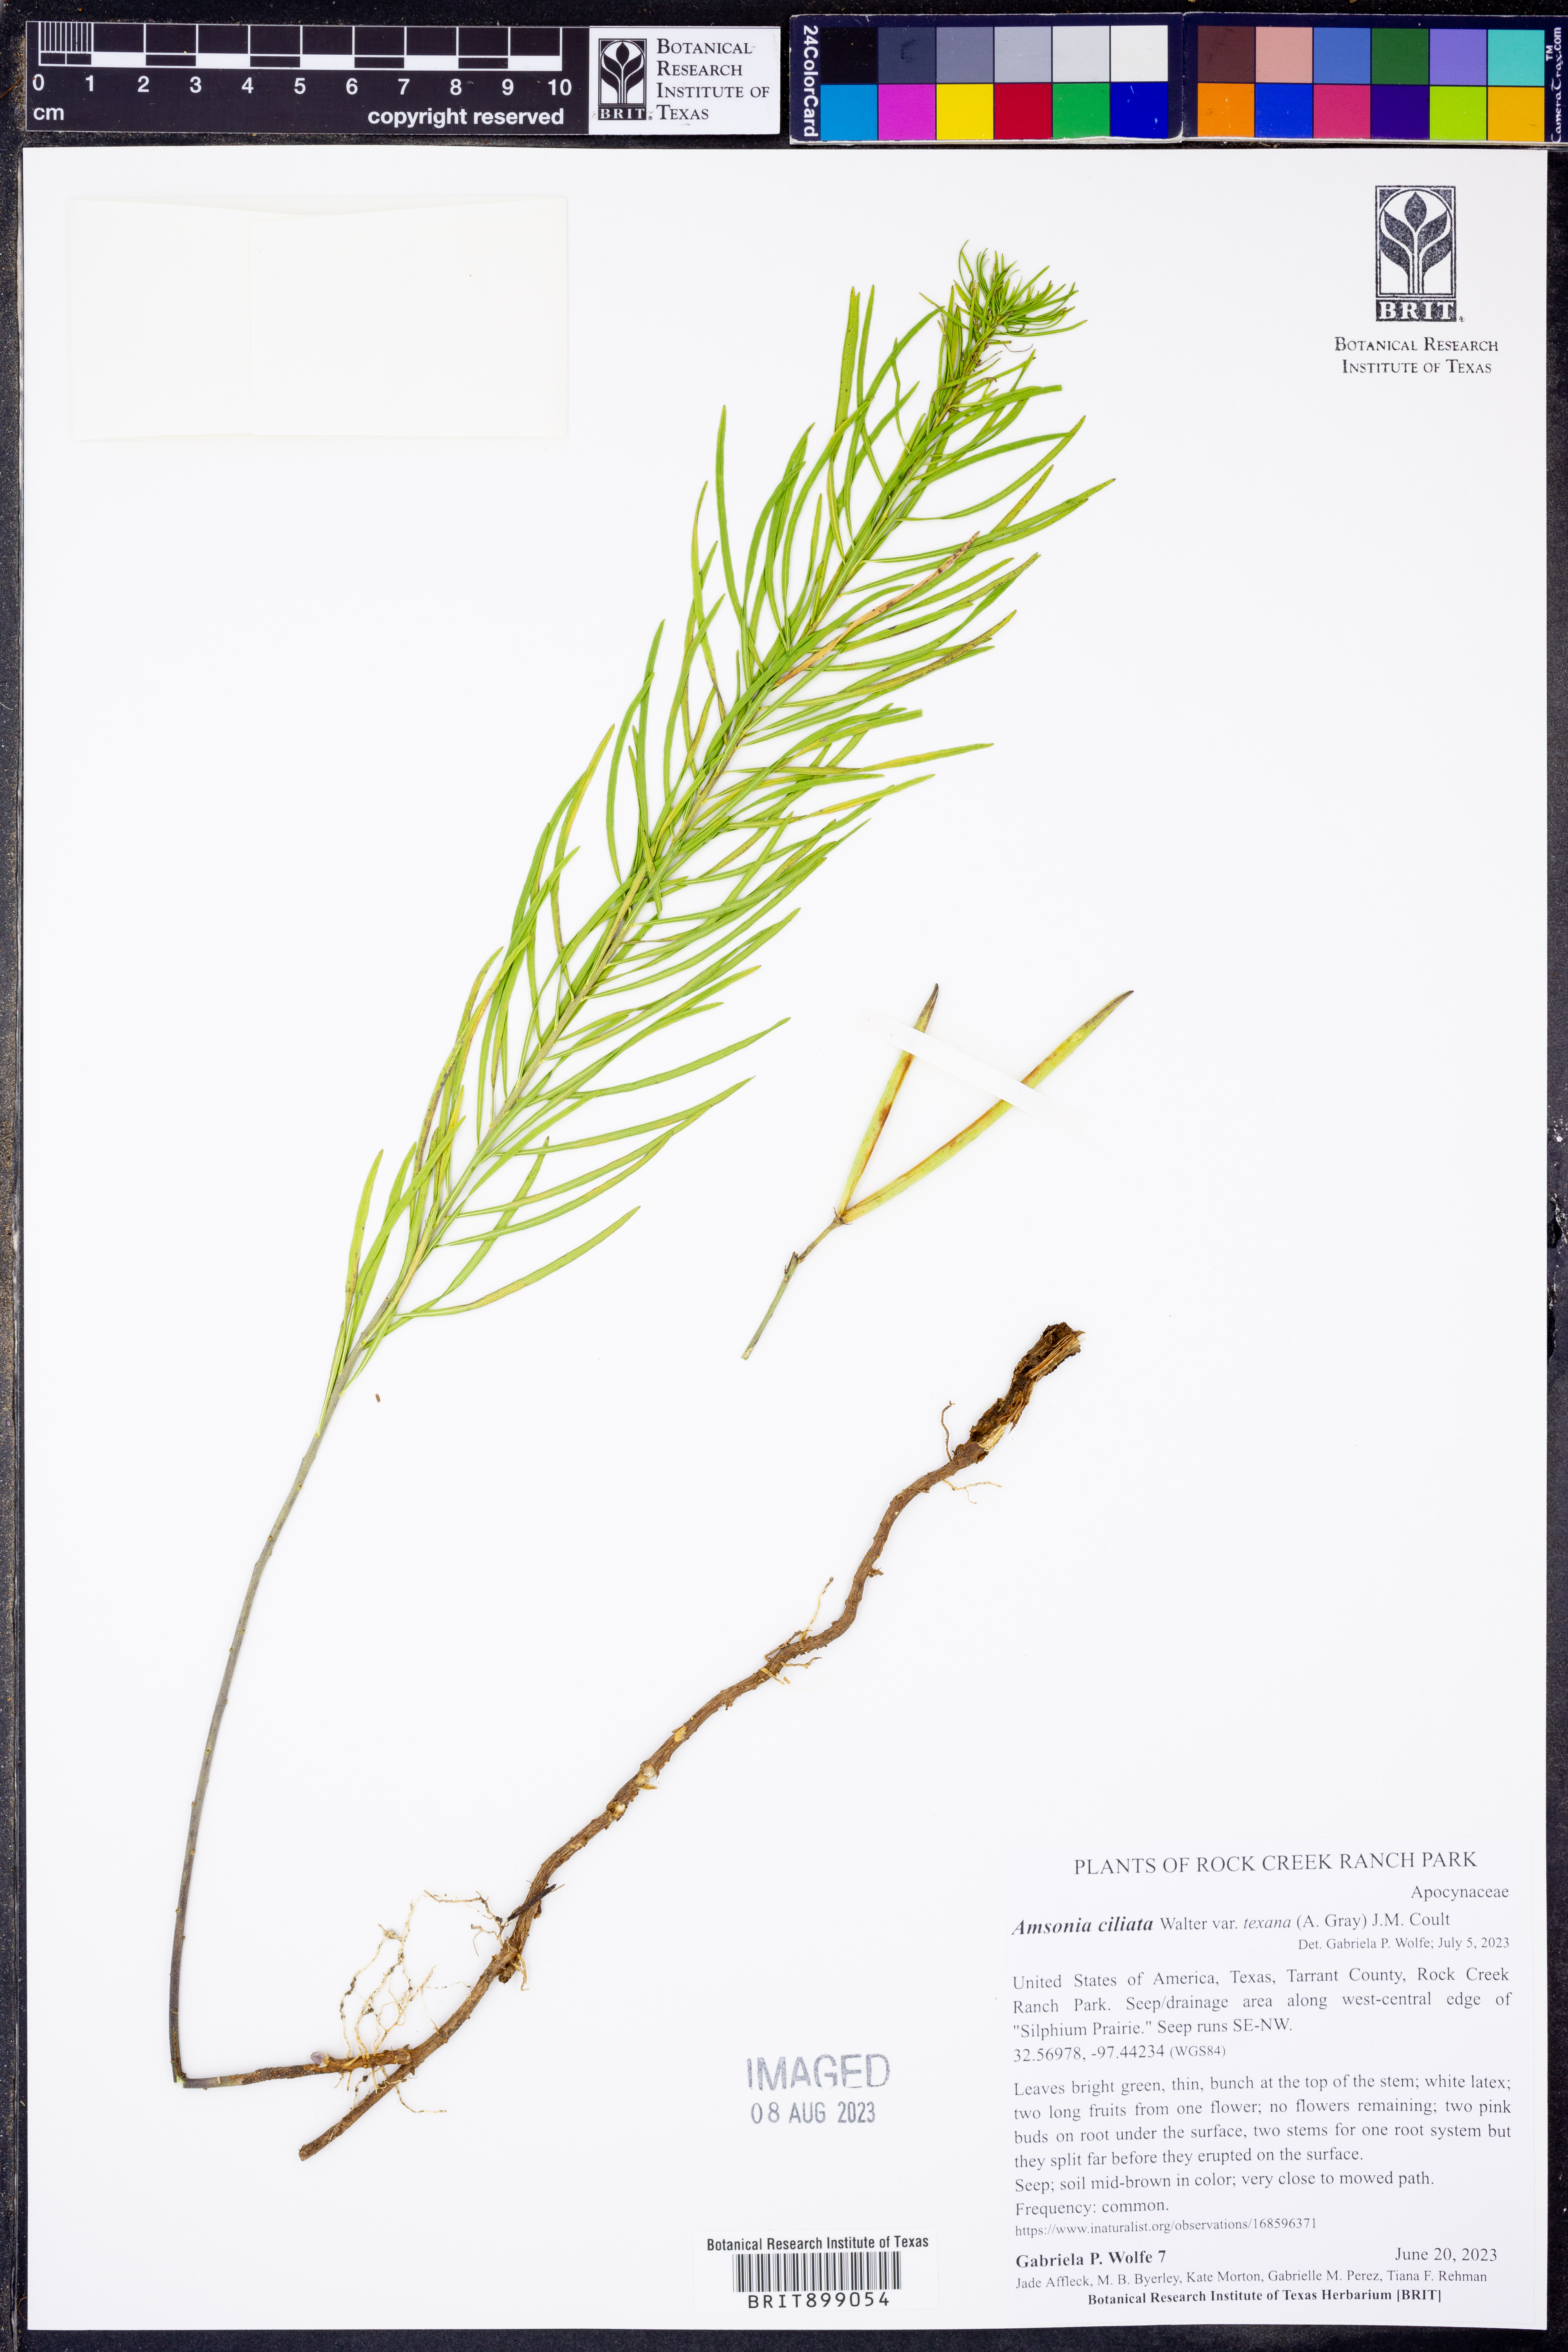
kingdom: Plantae
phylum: Tracheophyta
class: Magnoliopsida
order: Gentianales
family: Apocynaceae
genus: Amsonia
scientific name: Amsonia ciliata
